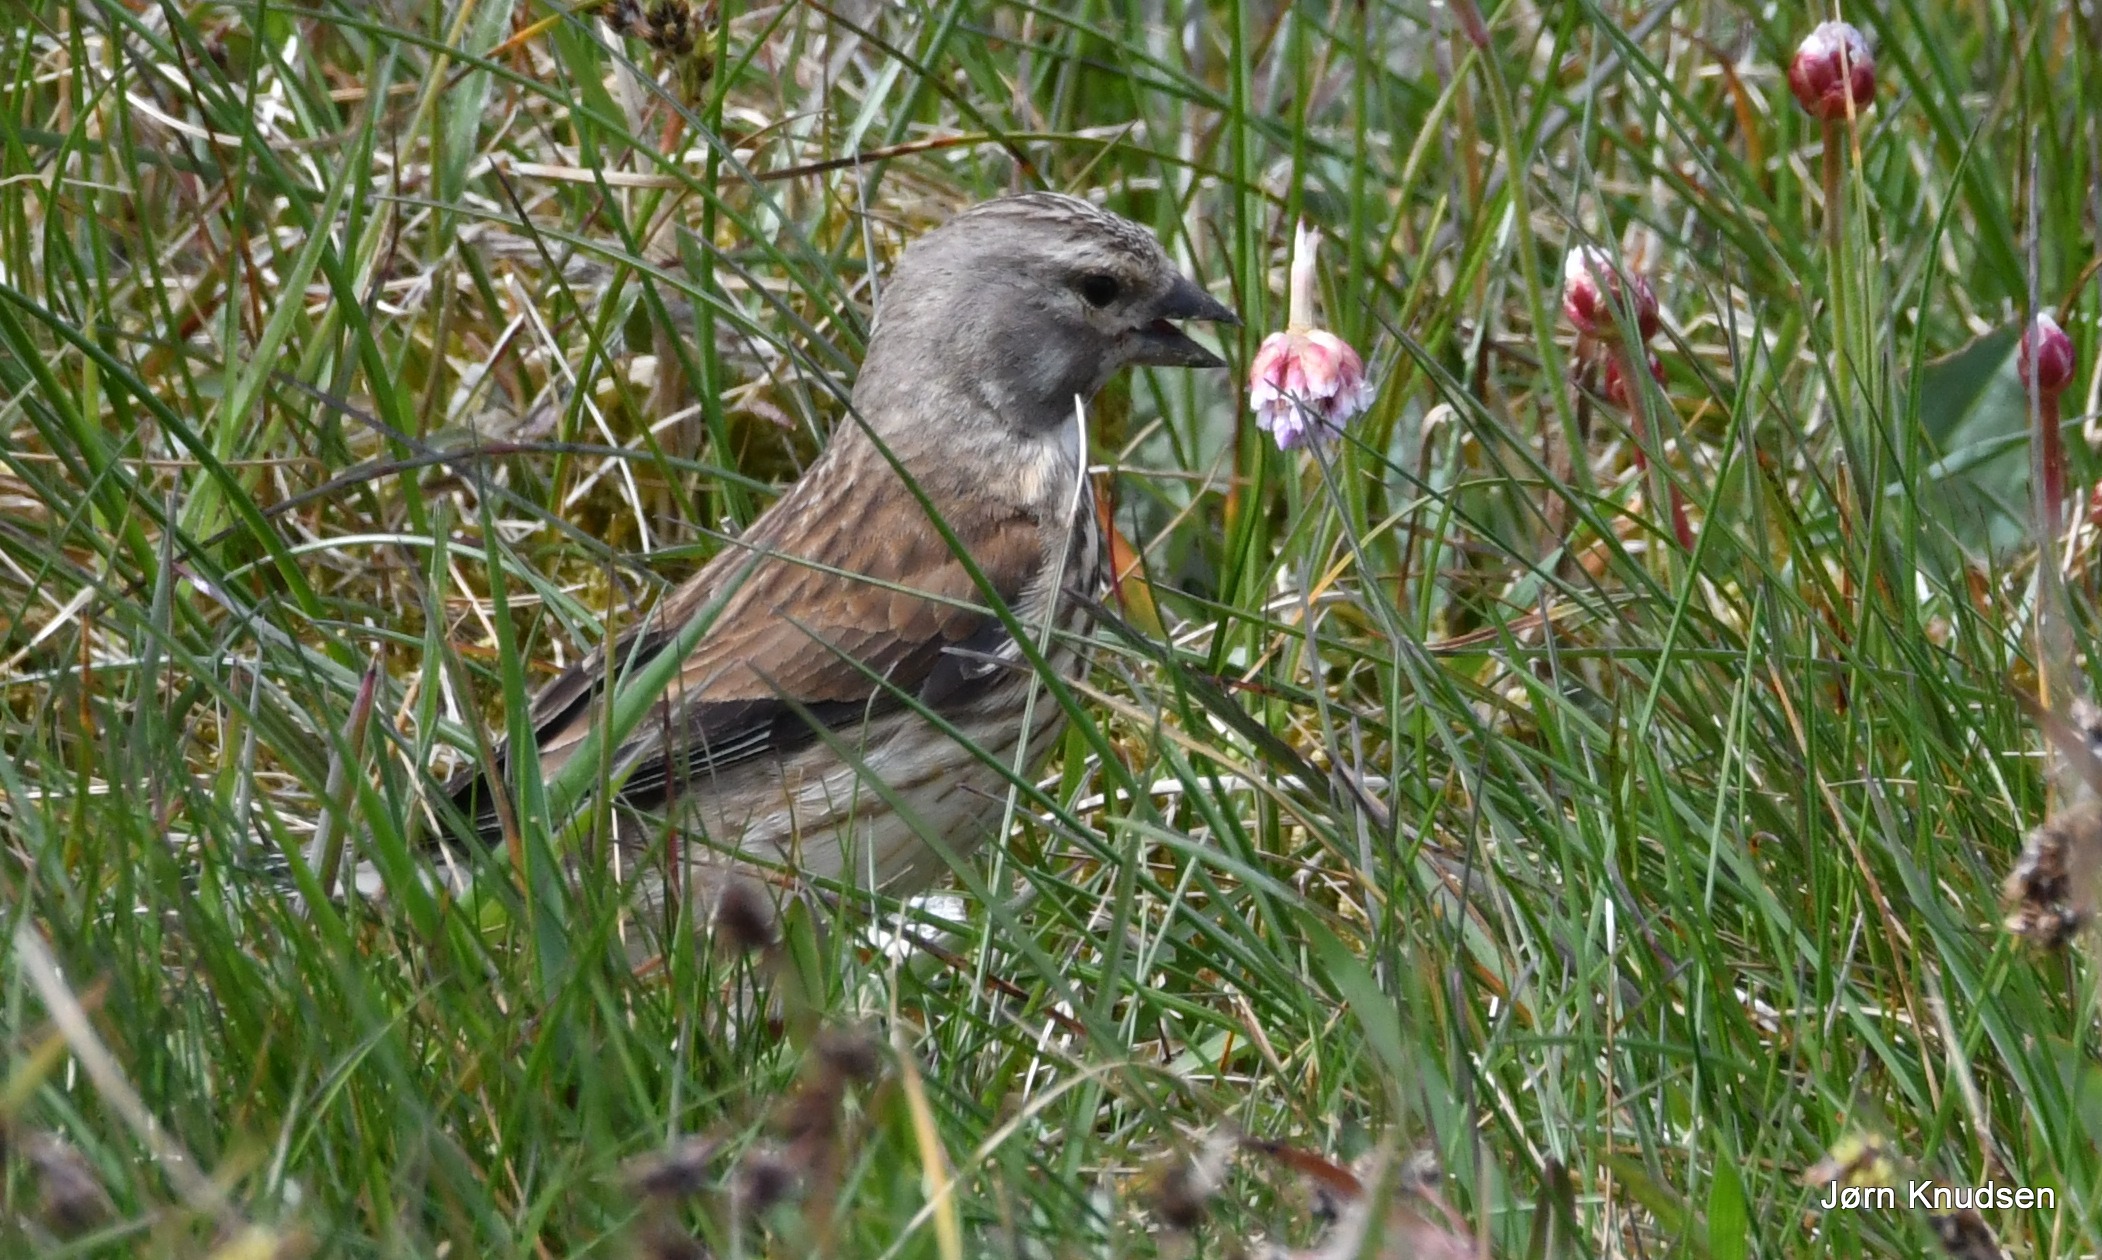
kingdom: Animalia
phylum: Chordata
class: Aves
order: Passeriformes
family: Fringillidae
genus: Linaria
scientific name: Linaria cannabina
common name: Tornirisk
